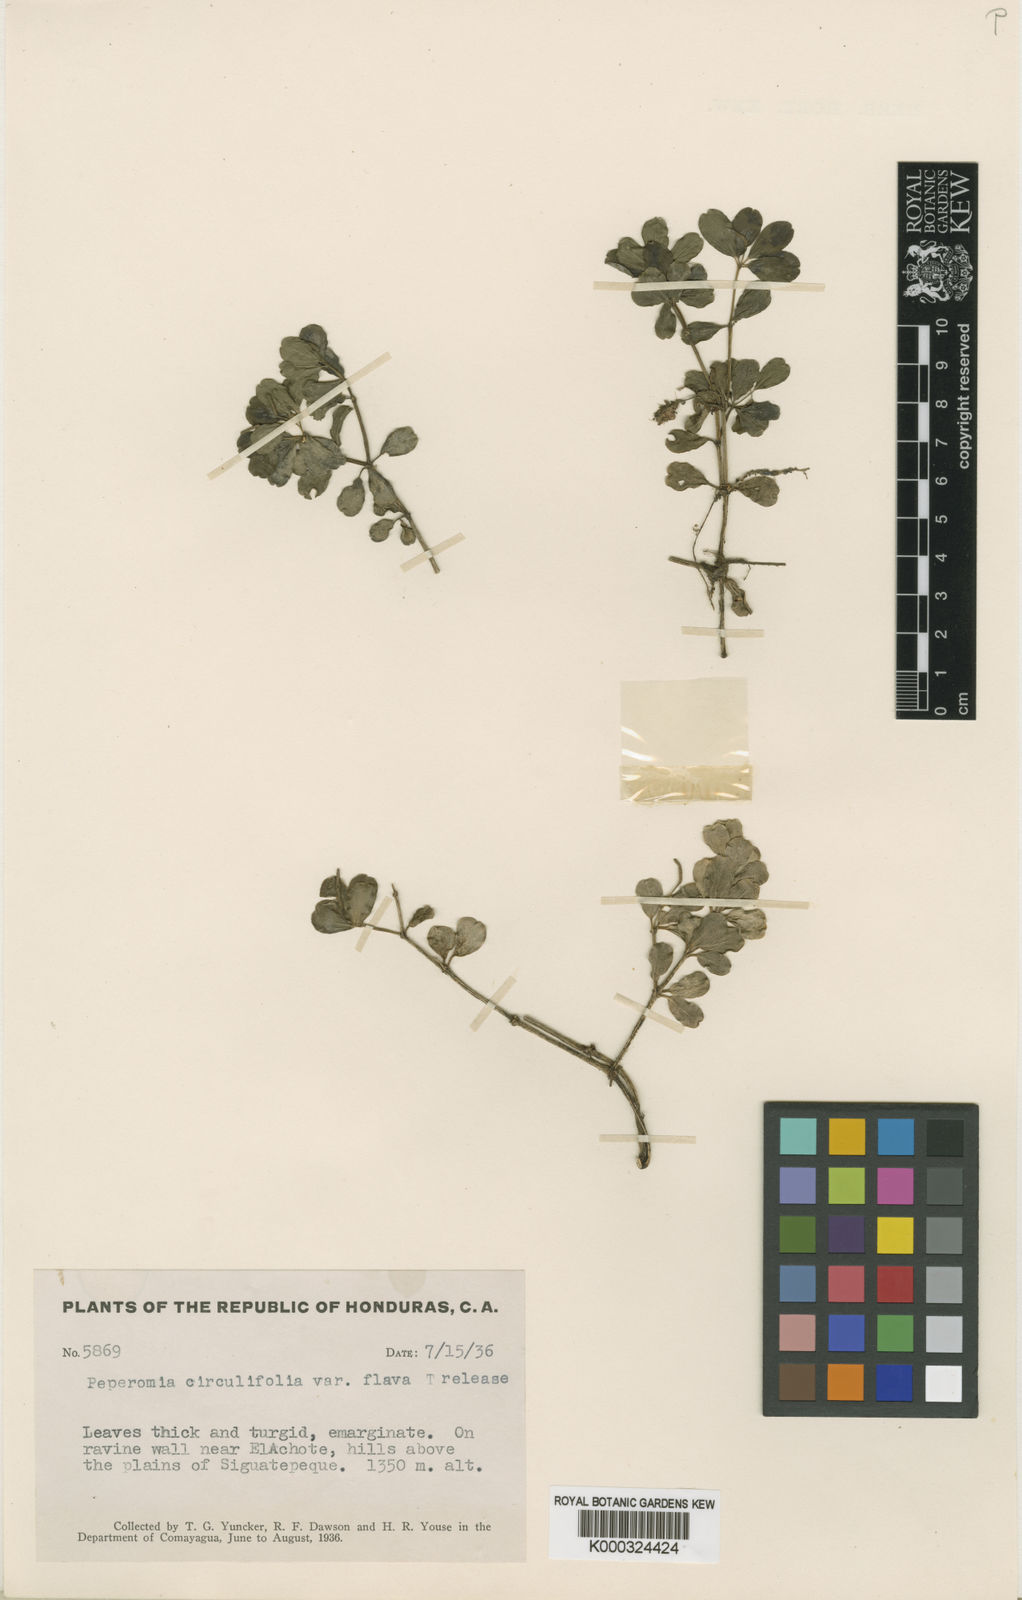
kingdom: Plantae
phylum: Tracheophyta
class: Magnoliopsida
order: Piperales
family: Piperaceae
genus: Peperomia
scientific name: Peperomia quadrifolia
